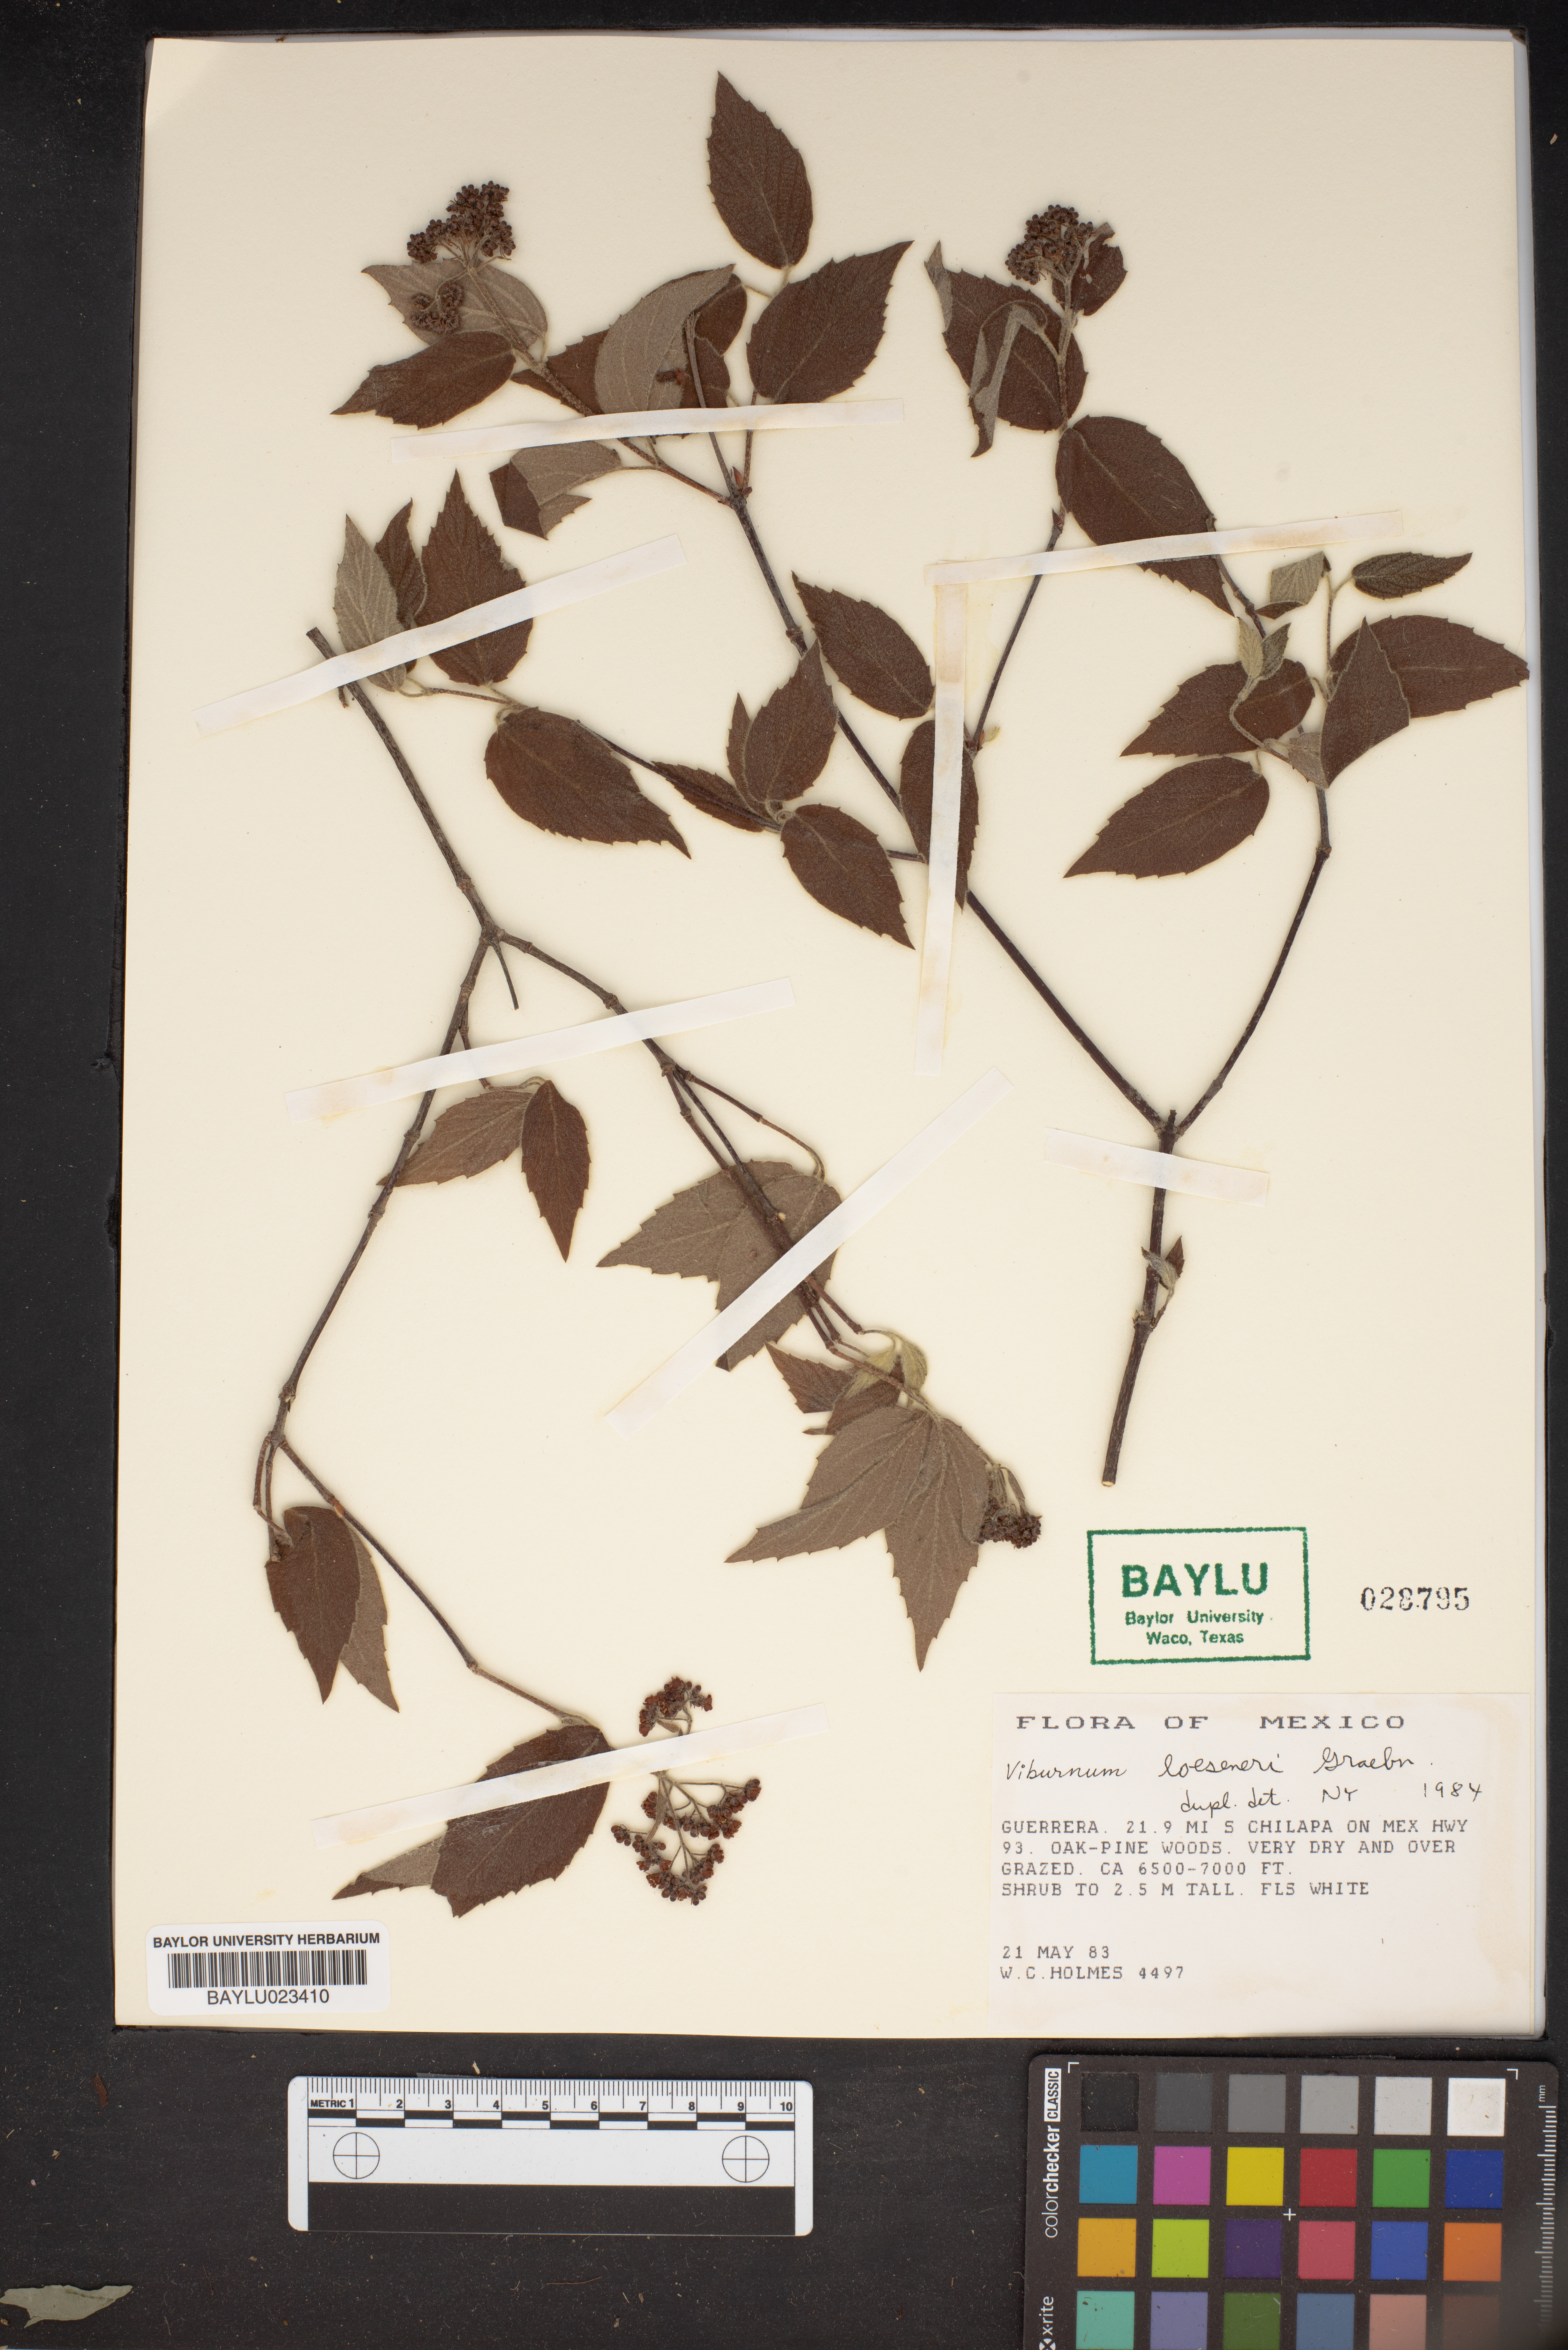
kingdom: Plantae
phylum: Tracheophyta
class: Magnoliopsida
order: Dipsacales
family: Viburnaceae
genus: Viburnum
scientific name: Viburnum loeseneri
